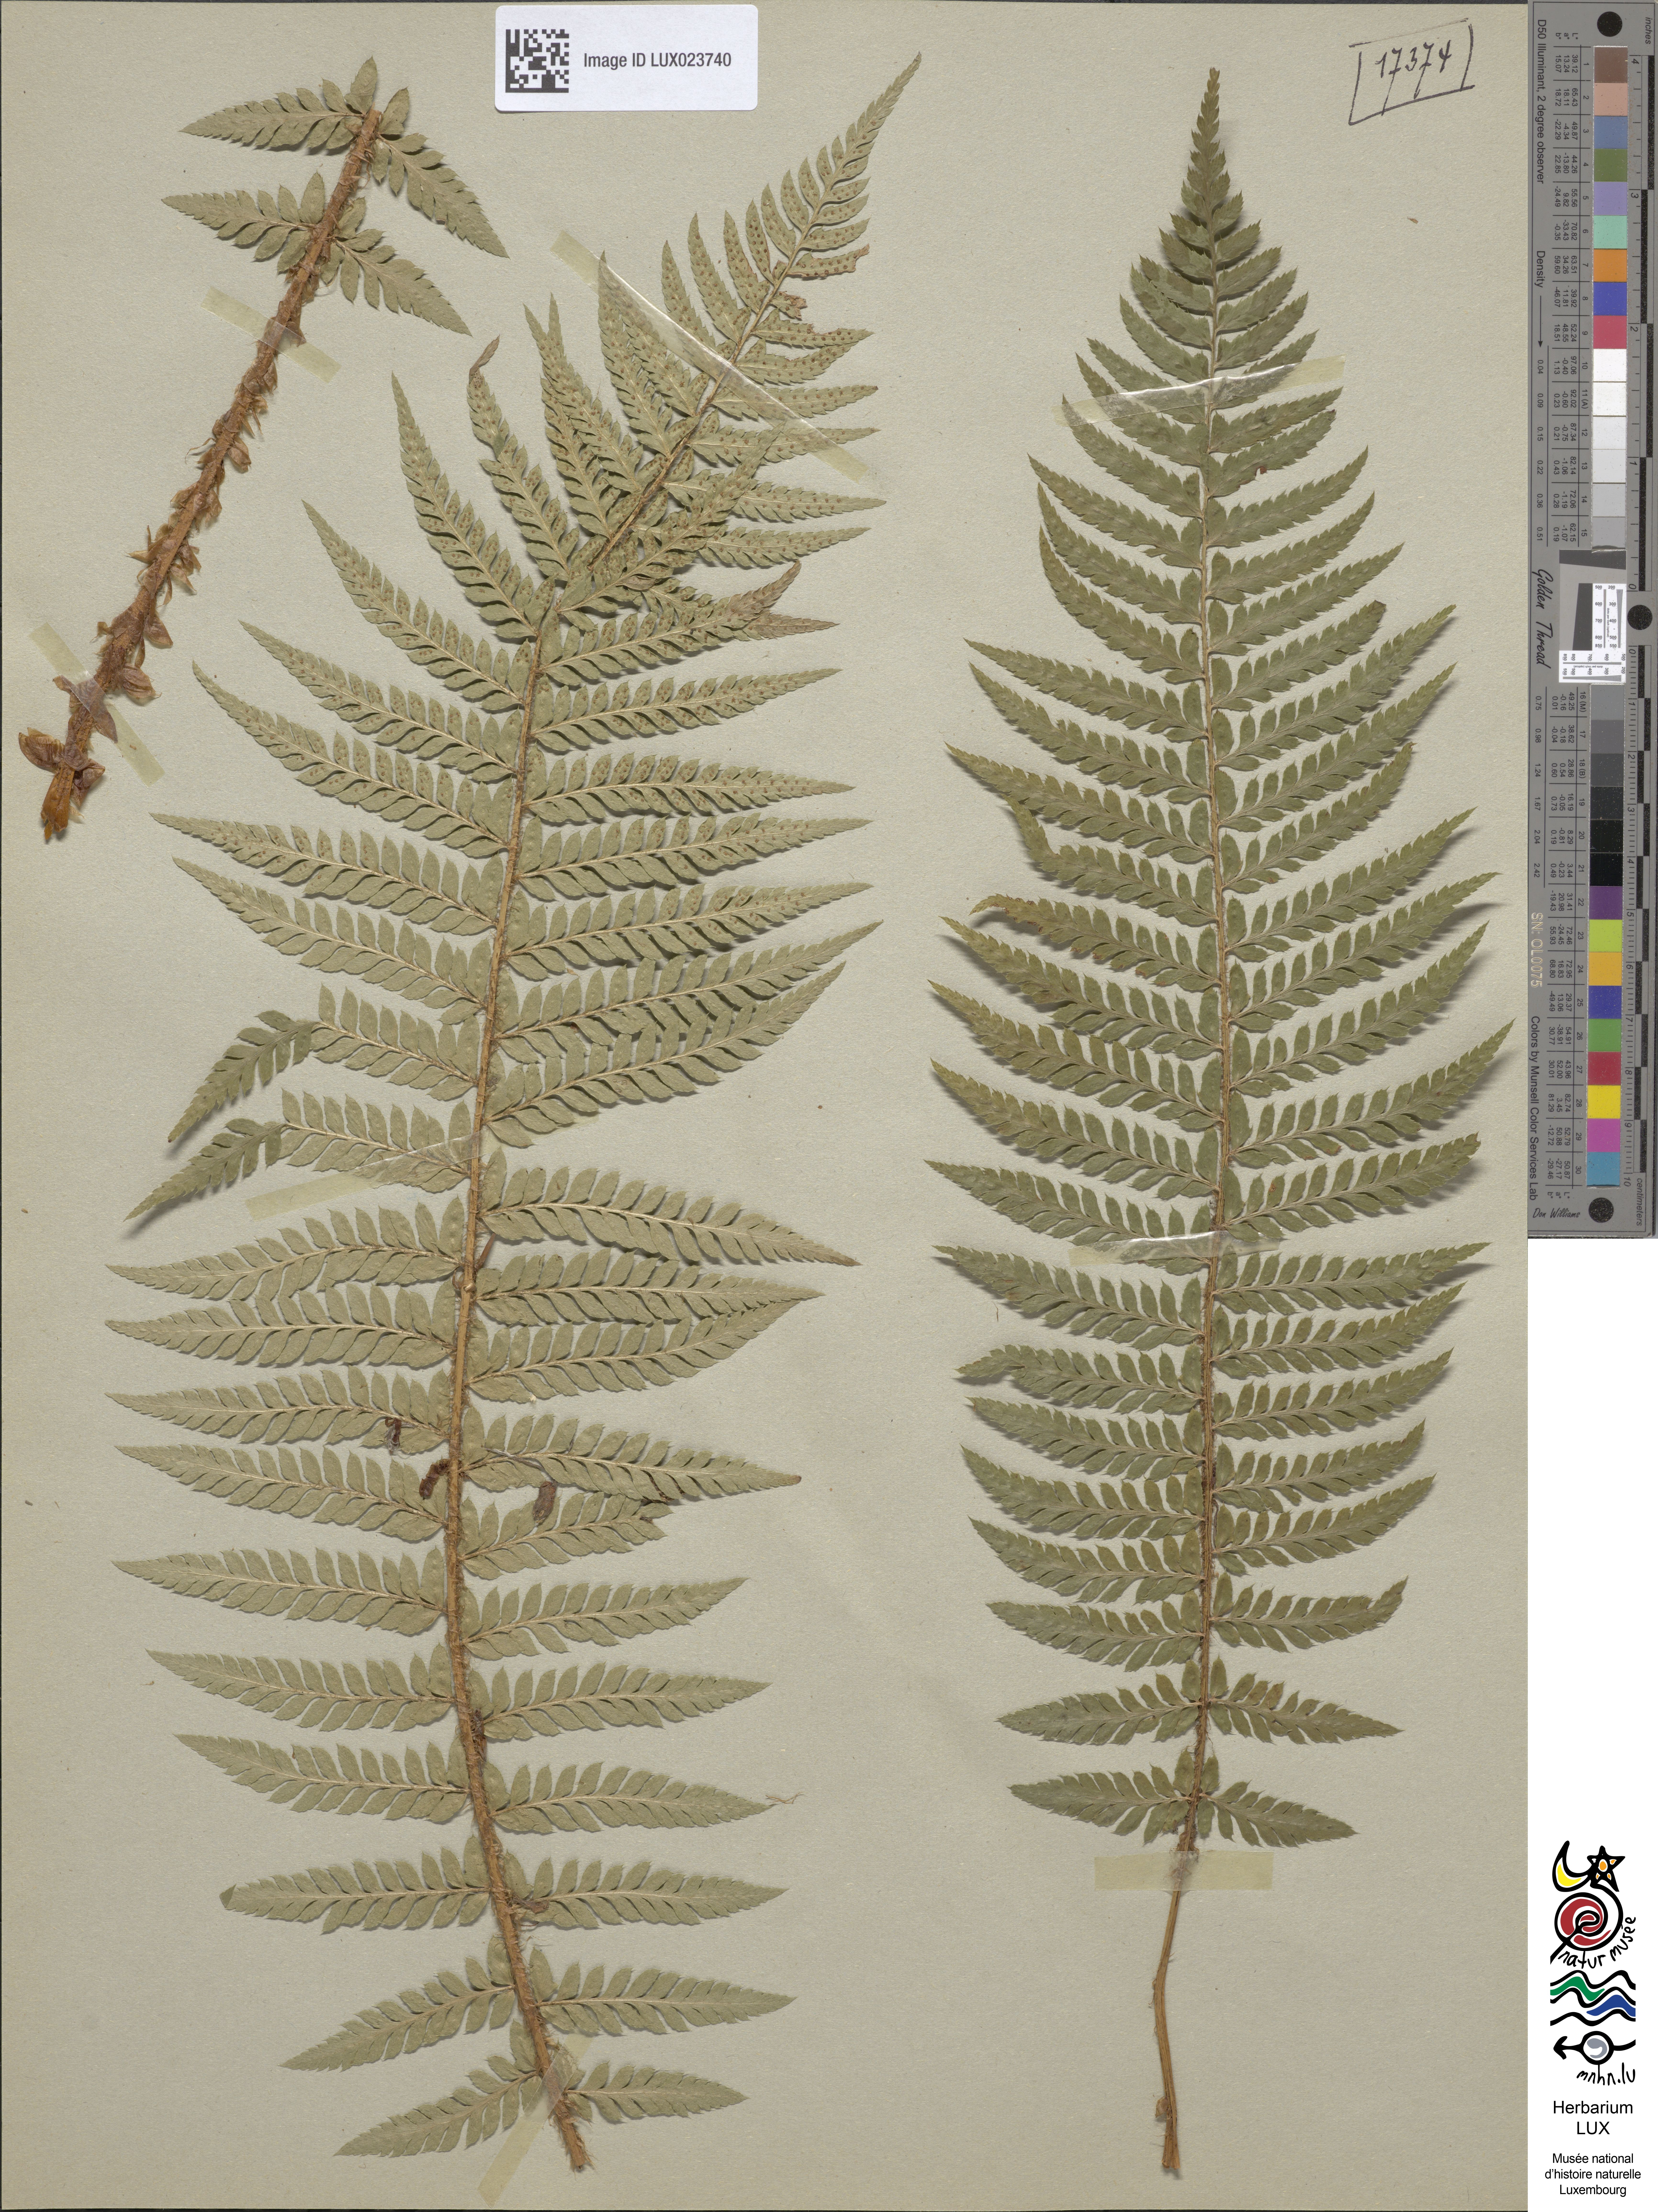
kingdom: Plantae
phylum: Tracheophyta
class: Polypodiopsida
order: Polypodiales
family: Dryopteridaceae
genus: Polystichum
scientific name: Polystichum
